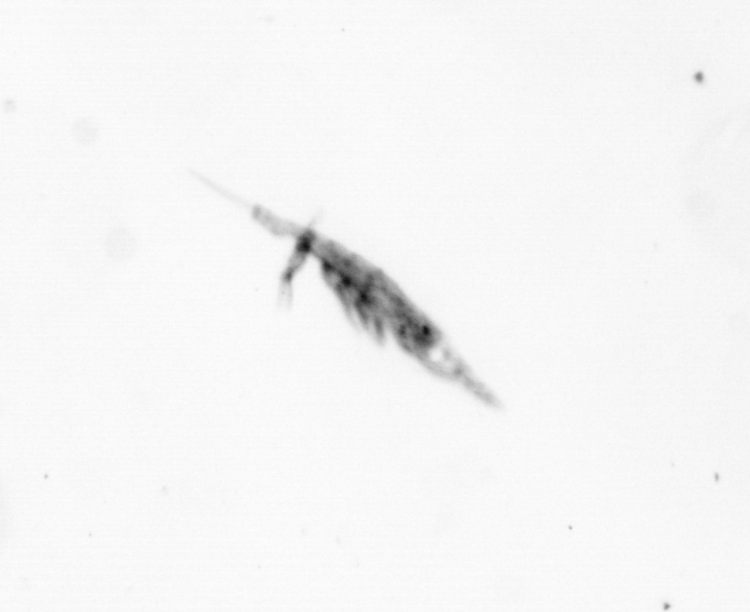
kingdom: Animalia
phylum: Arthropoda
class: Copepoda
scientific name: Copepoda
